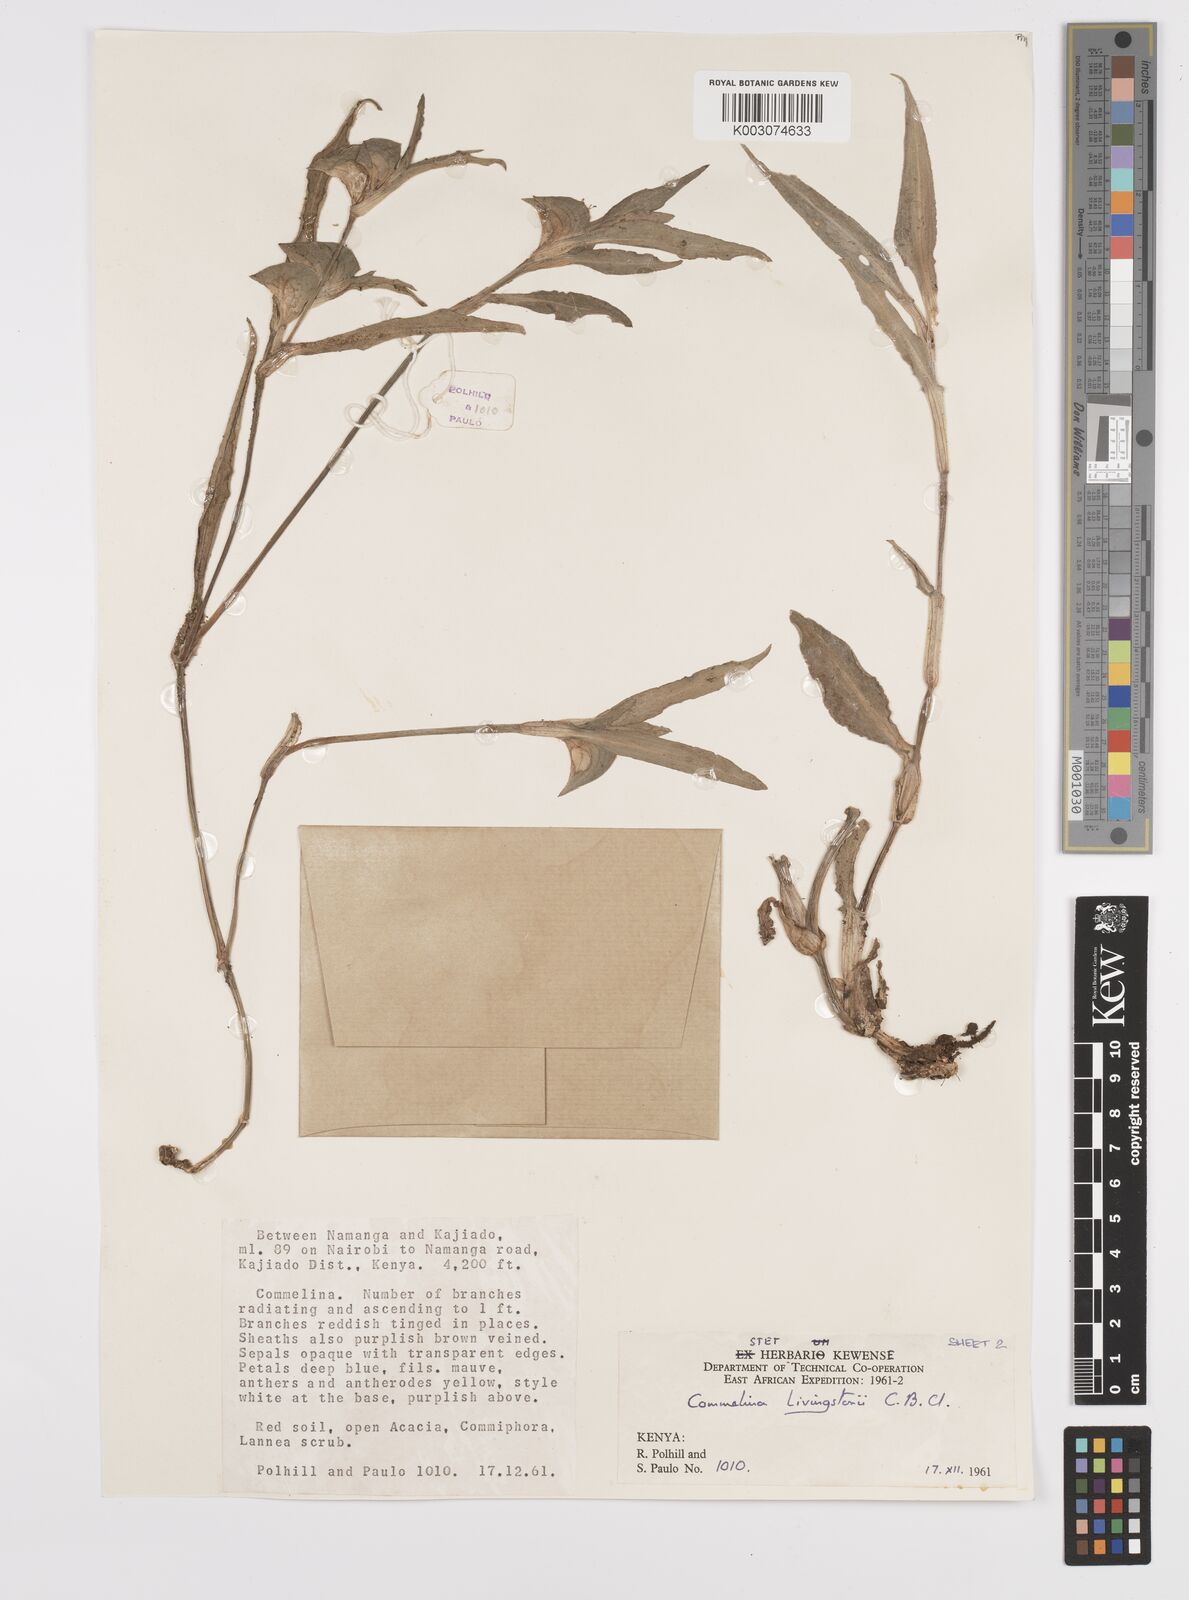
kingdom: Plantae
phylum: Tracheophyta
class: Liliopsida
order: Commelinales
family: Commelinaceae
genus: Commelina
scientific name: Commelina erecta
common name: Blousel blommetjie
